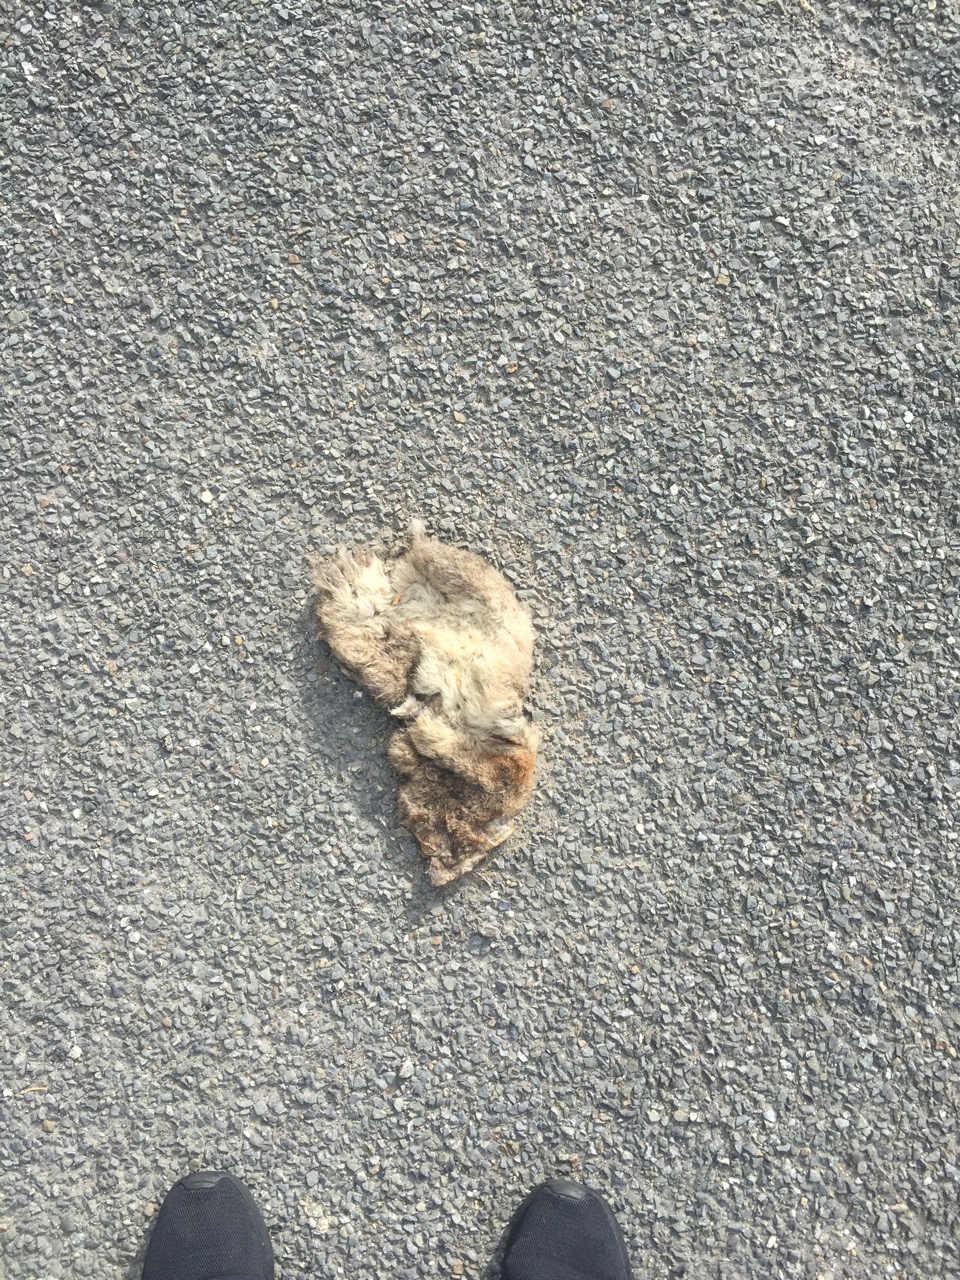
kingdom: Animalia
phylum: Chordata
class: Mammalia
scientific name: Mammalia
